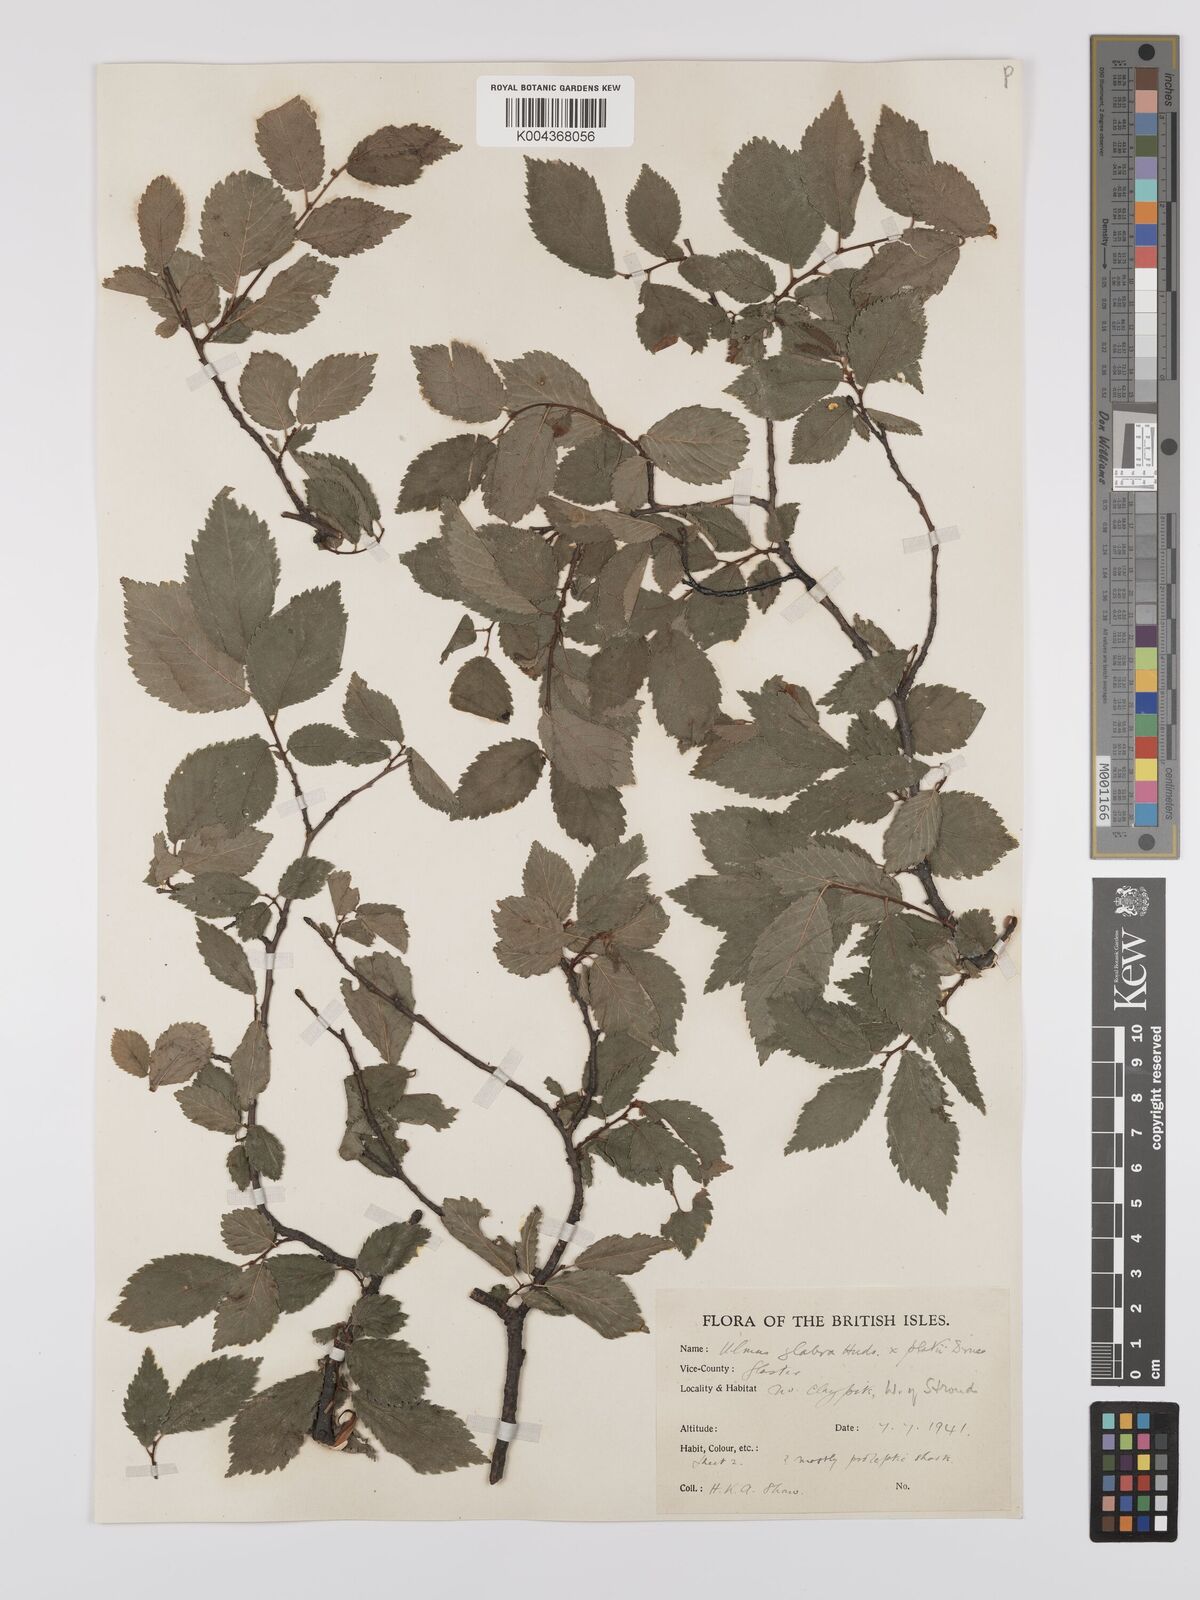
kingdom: Plantae
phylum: Tracheophyta
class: Magnoliopsida
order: Rosales
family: Ulmaceae
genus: Ulmus
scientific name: Ulmus
